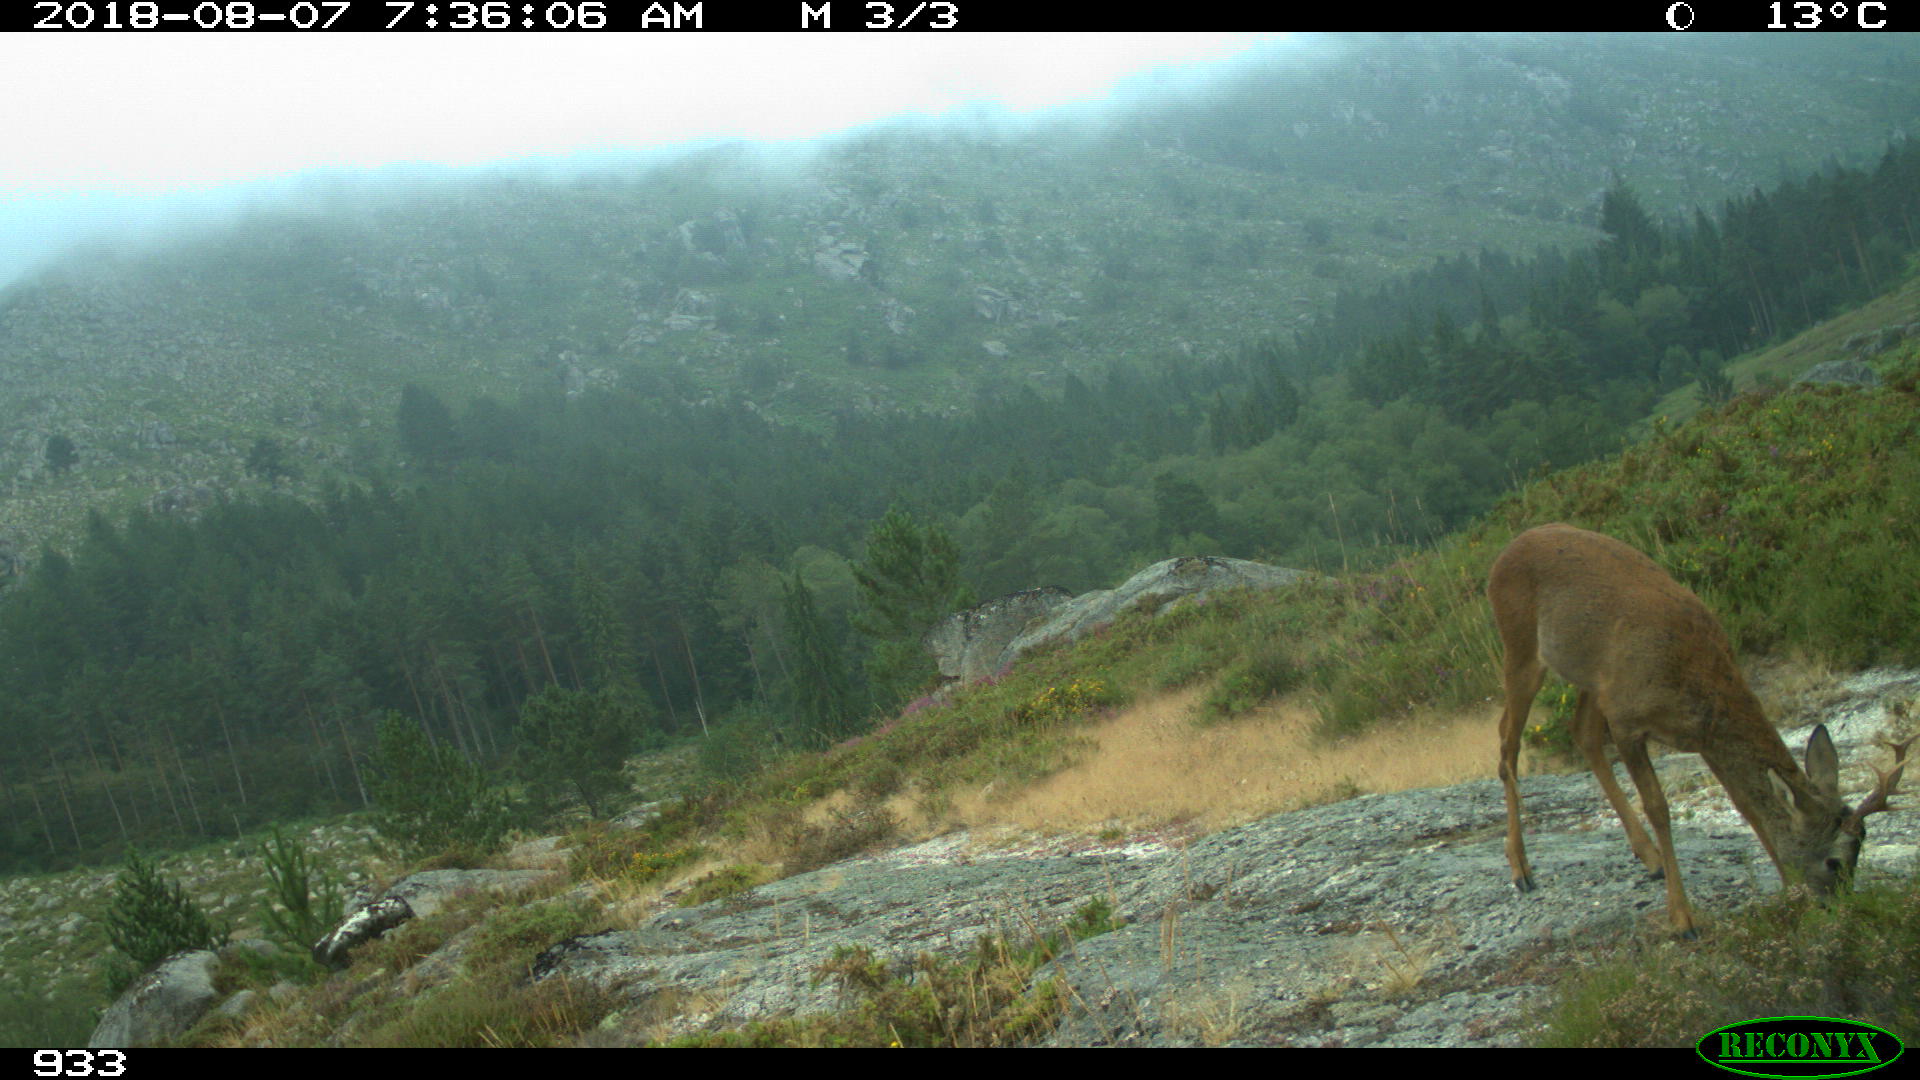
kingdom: Animalia
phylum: Chordata
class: Mammalia
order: Artiodactyla
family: Cervidae
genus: Capreolus
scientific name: Capreolus capreolus
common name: Western roe deer
